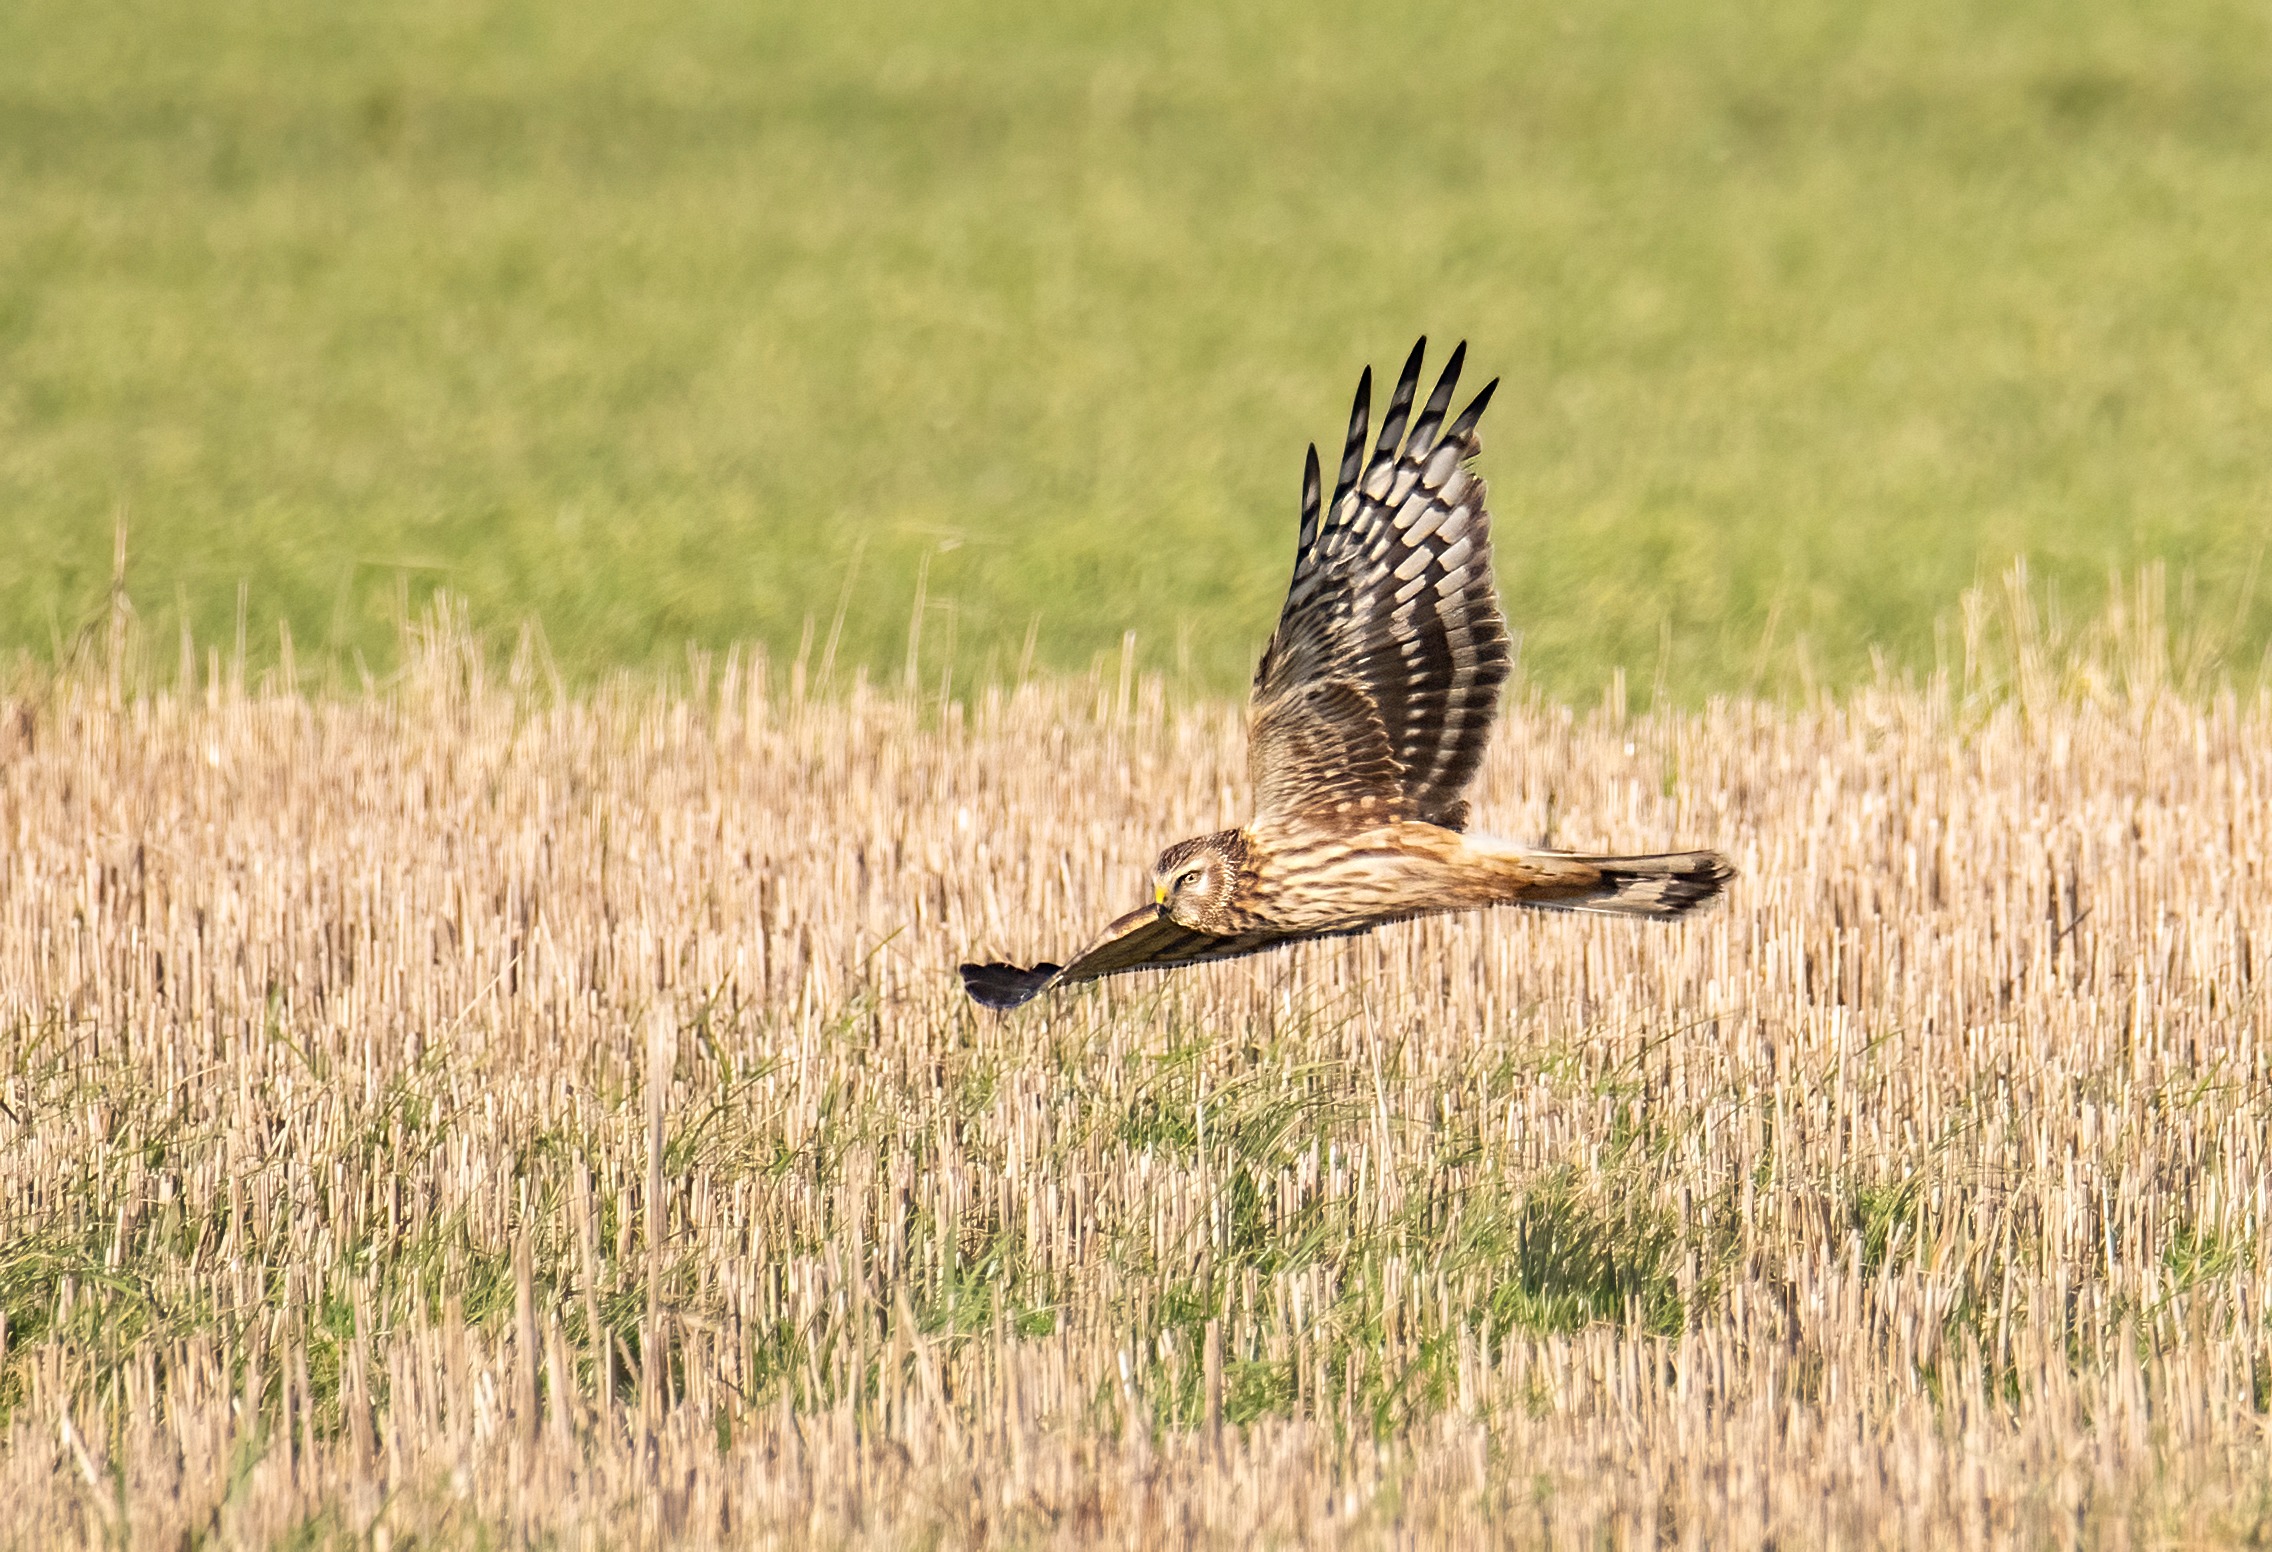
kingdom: Animalia
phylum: Chordata
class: Aves
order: Accipitriformes
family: Accipitridae
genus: Circus
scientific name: Circus cyaneus
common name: Blå kærhøg
